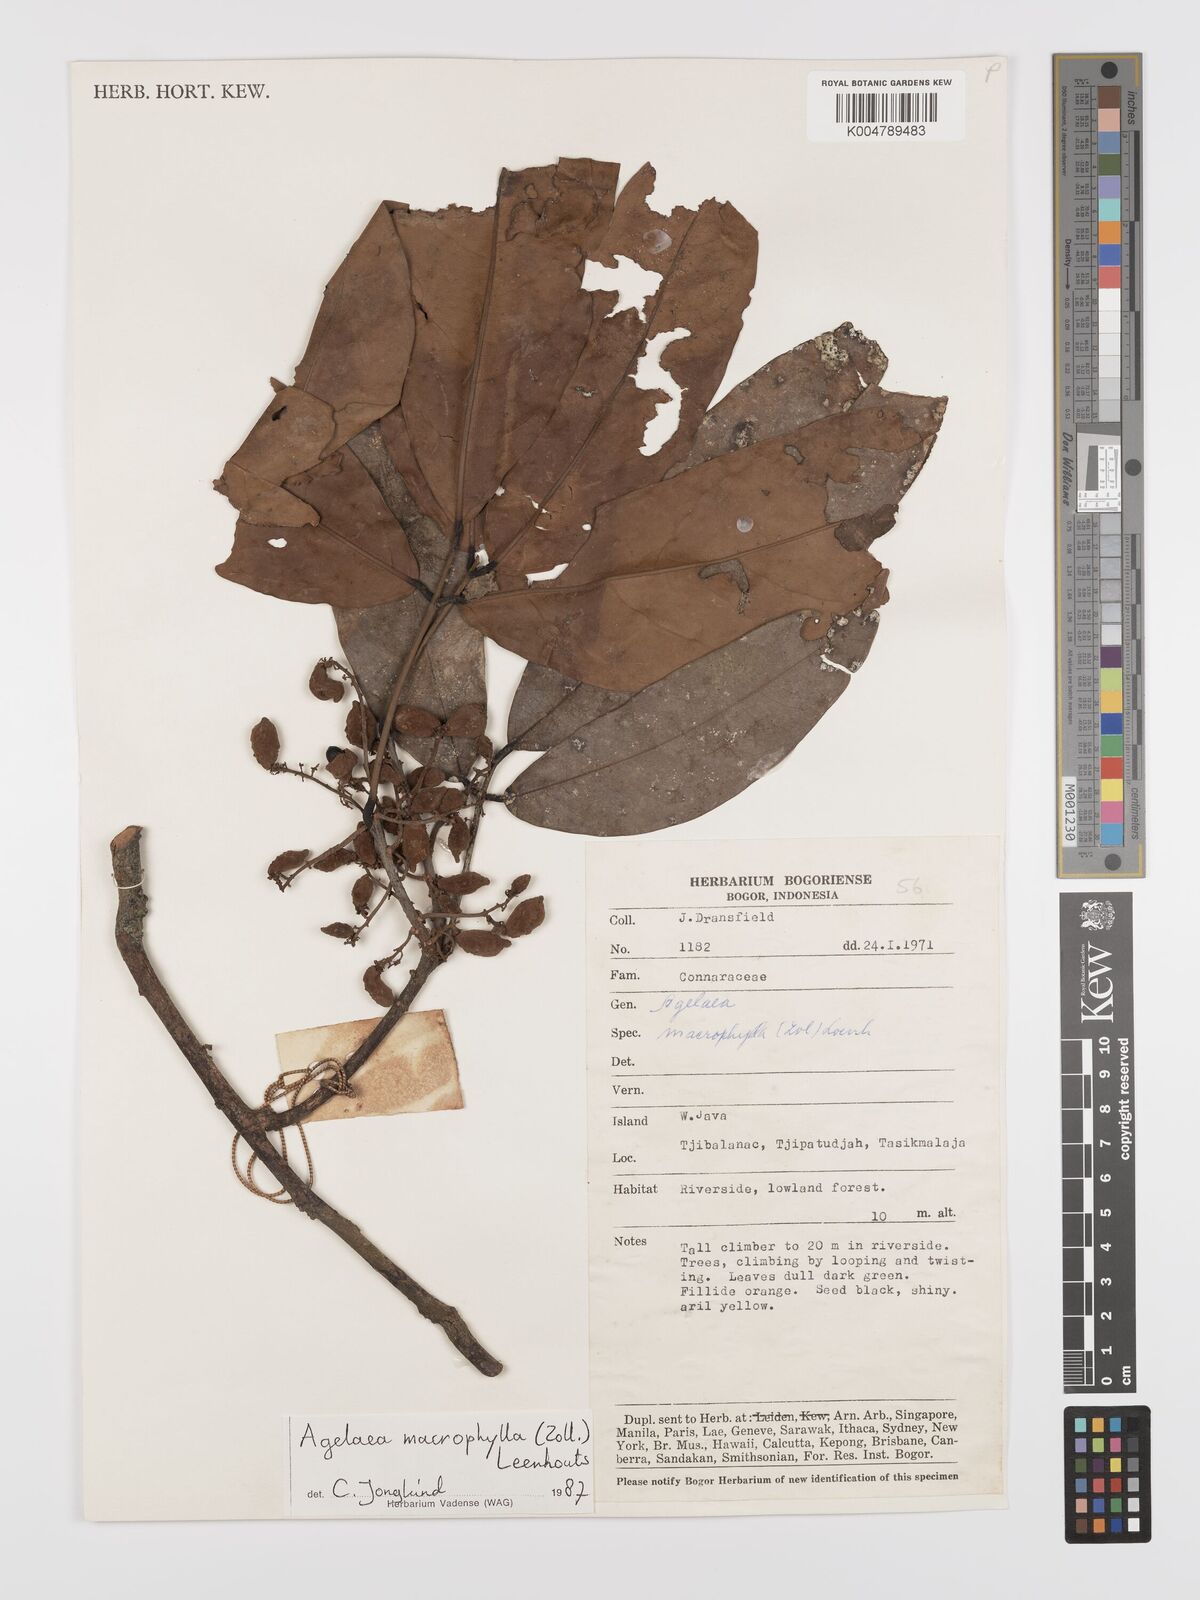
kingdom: Plantae
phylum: Tracheophyta
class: Magnoliopsida
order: Oxalidales
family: Connaraceae
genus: Agelaea
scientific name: Agelaea macrophylla
